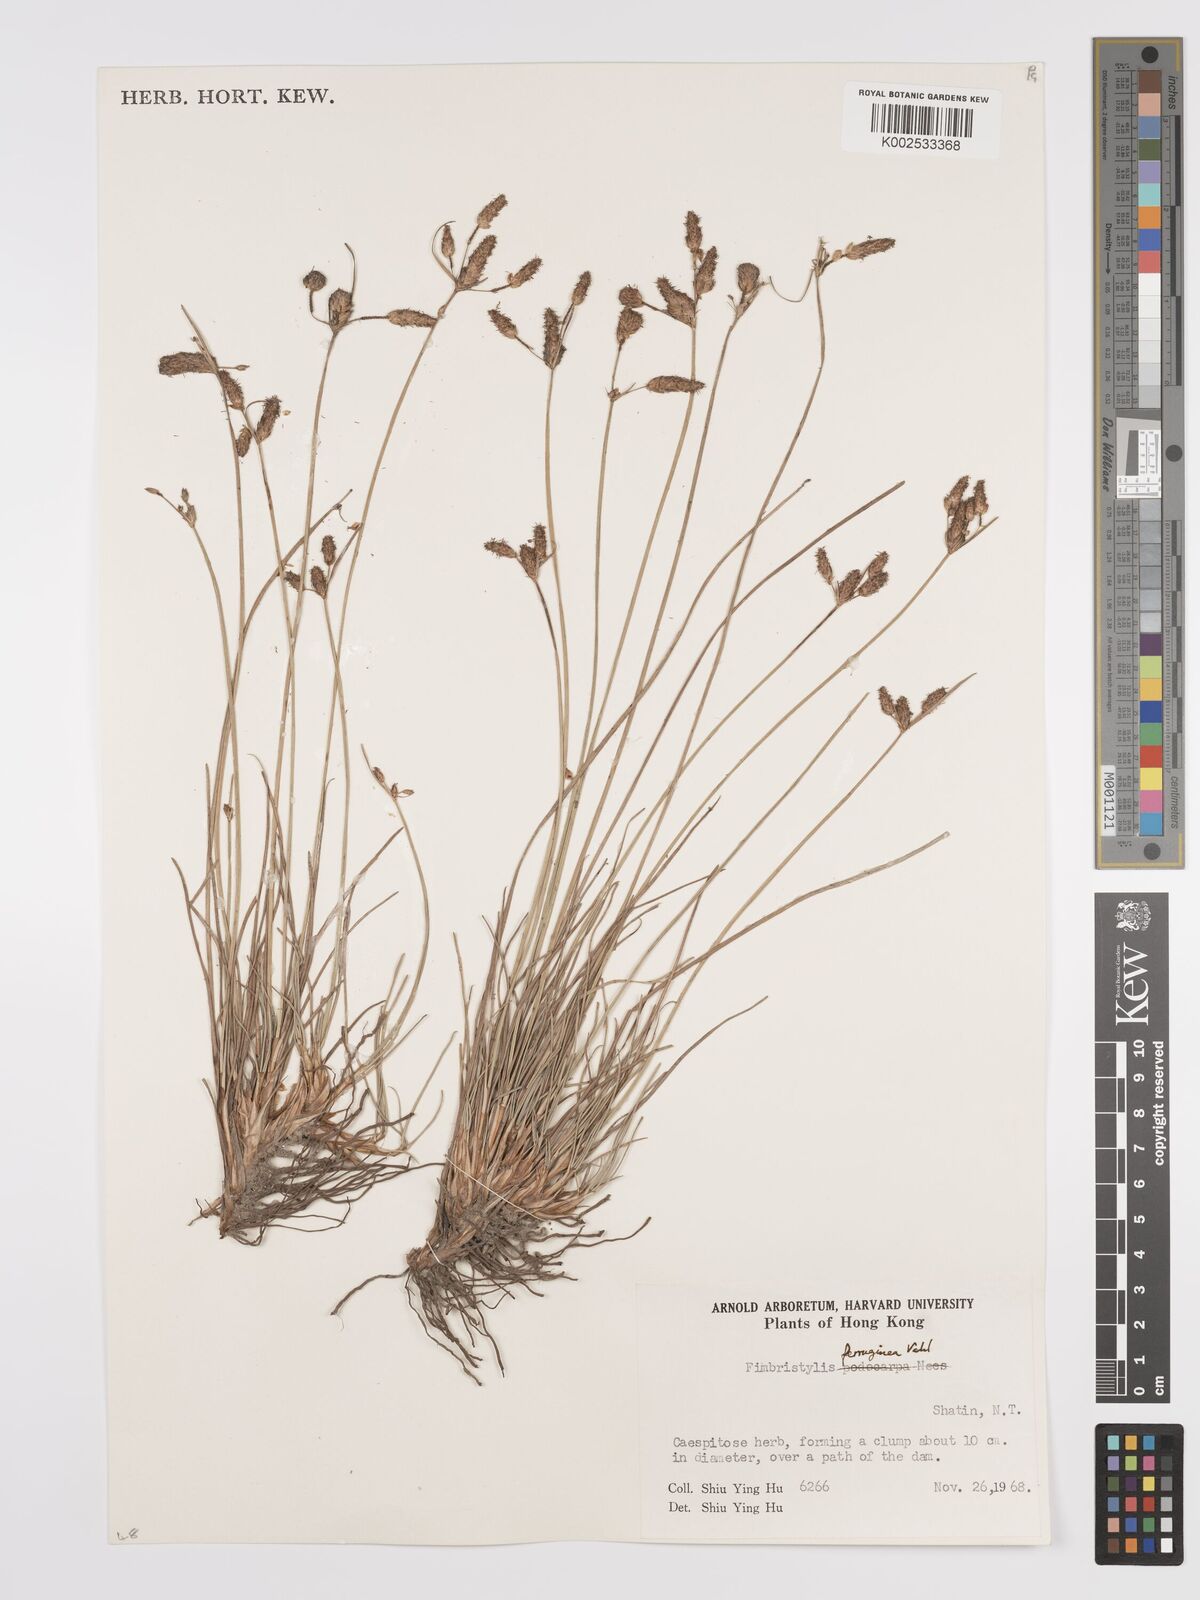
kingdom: Plantae
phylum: Tracheophyta
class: Liliopsida
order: Poales
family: Cyperaceae
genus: Fimbristylis
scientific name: Fimbristylis ferruginea
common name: West indian fimbry
